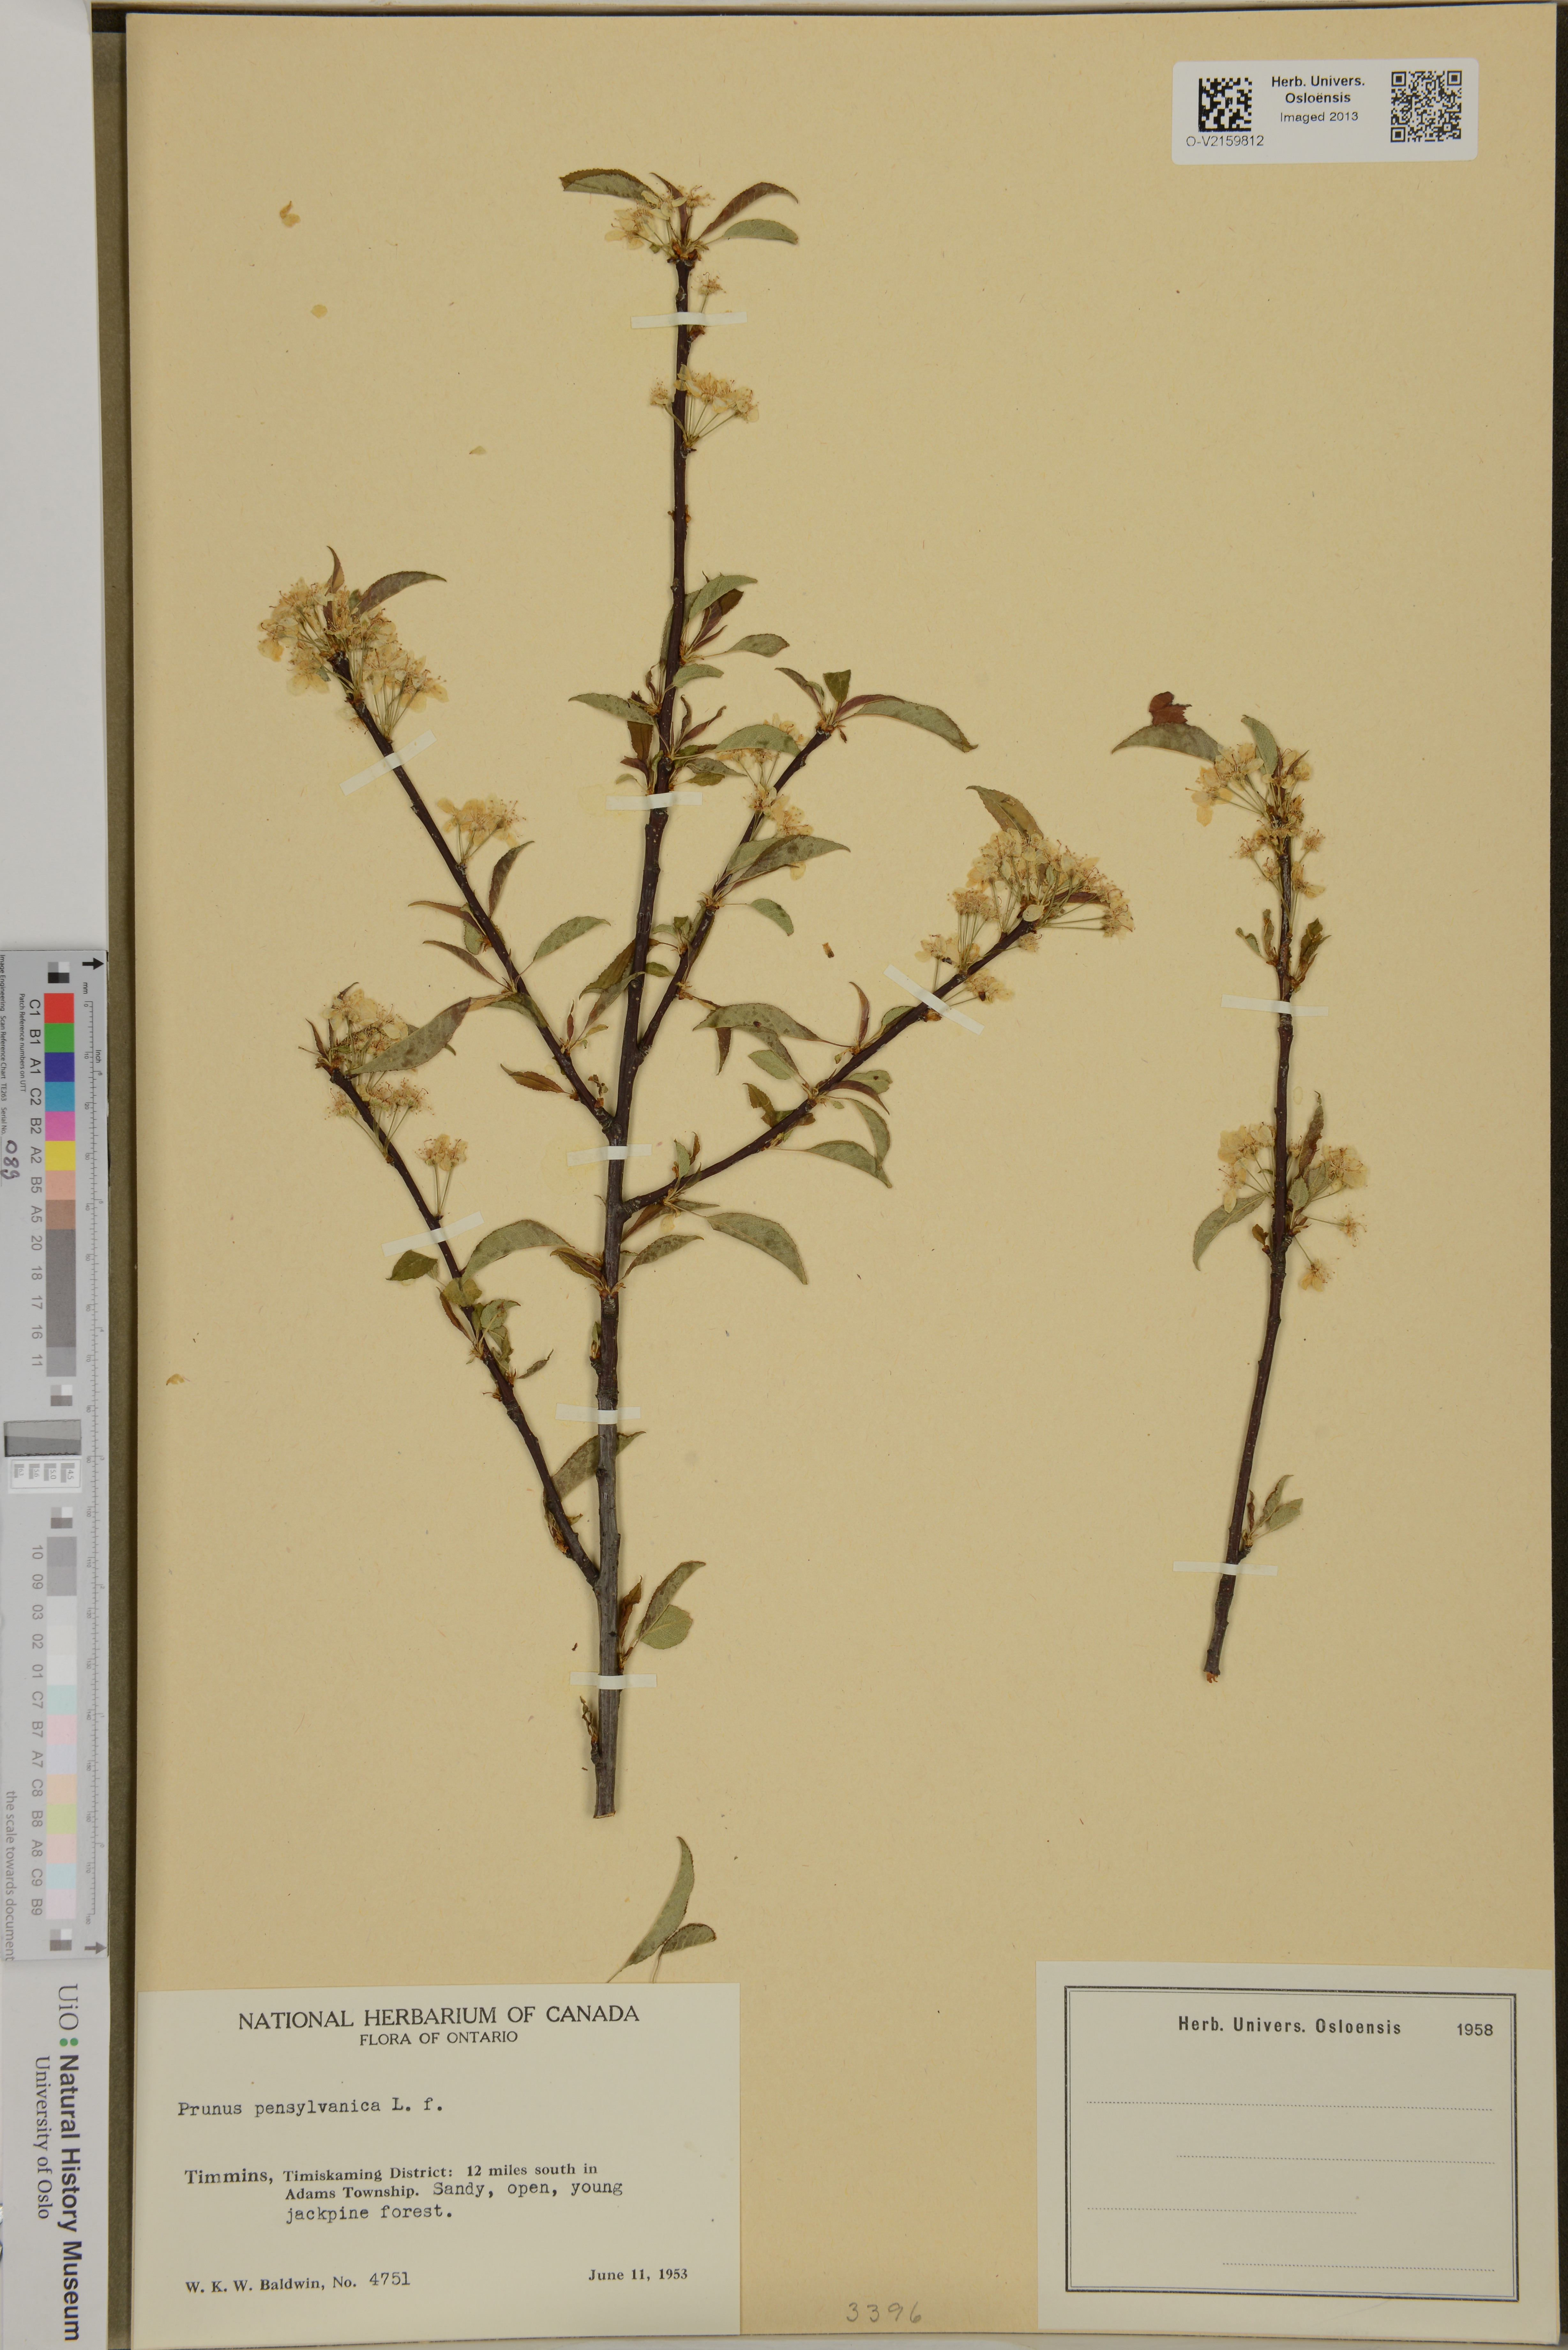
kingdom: Plantae
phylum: Tracheophyta
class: Magnoliopsida
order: Rosales
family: Rosaceae
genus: Prunus
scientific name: Prunus pensylvanica
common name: Pin cherry
